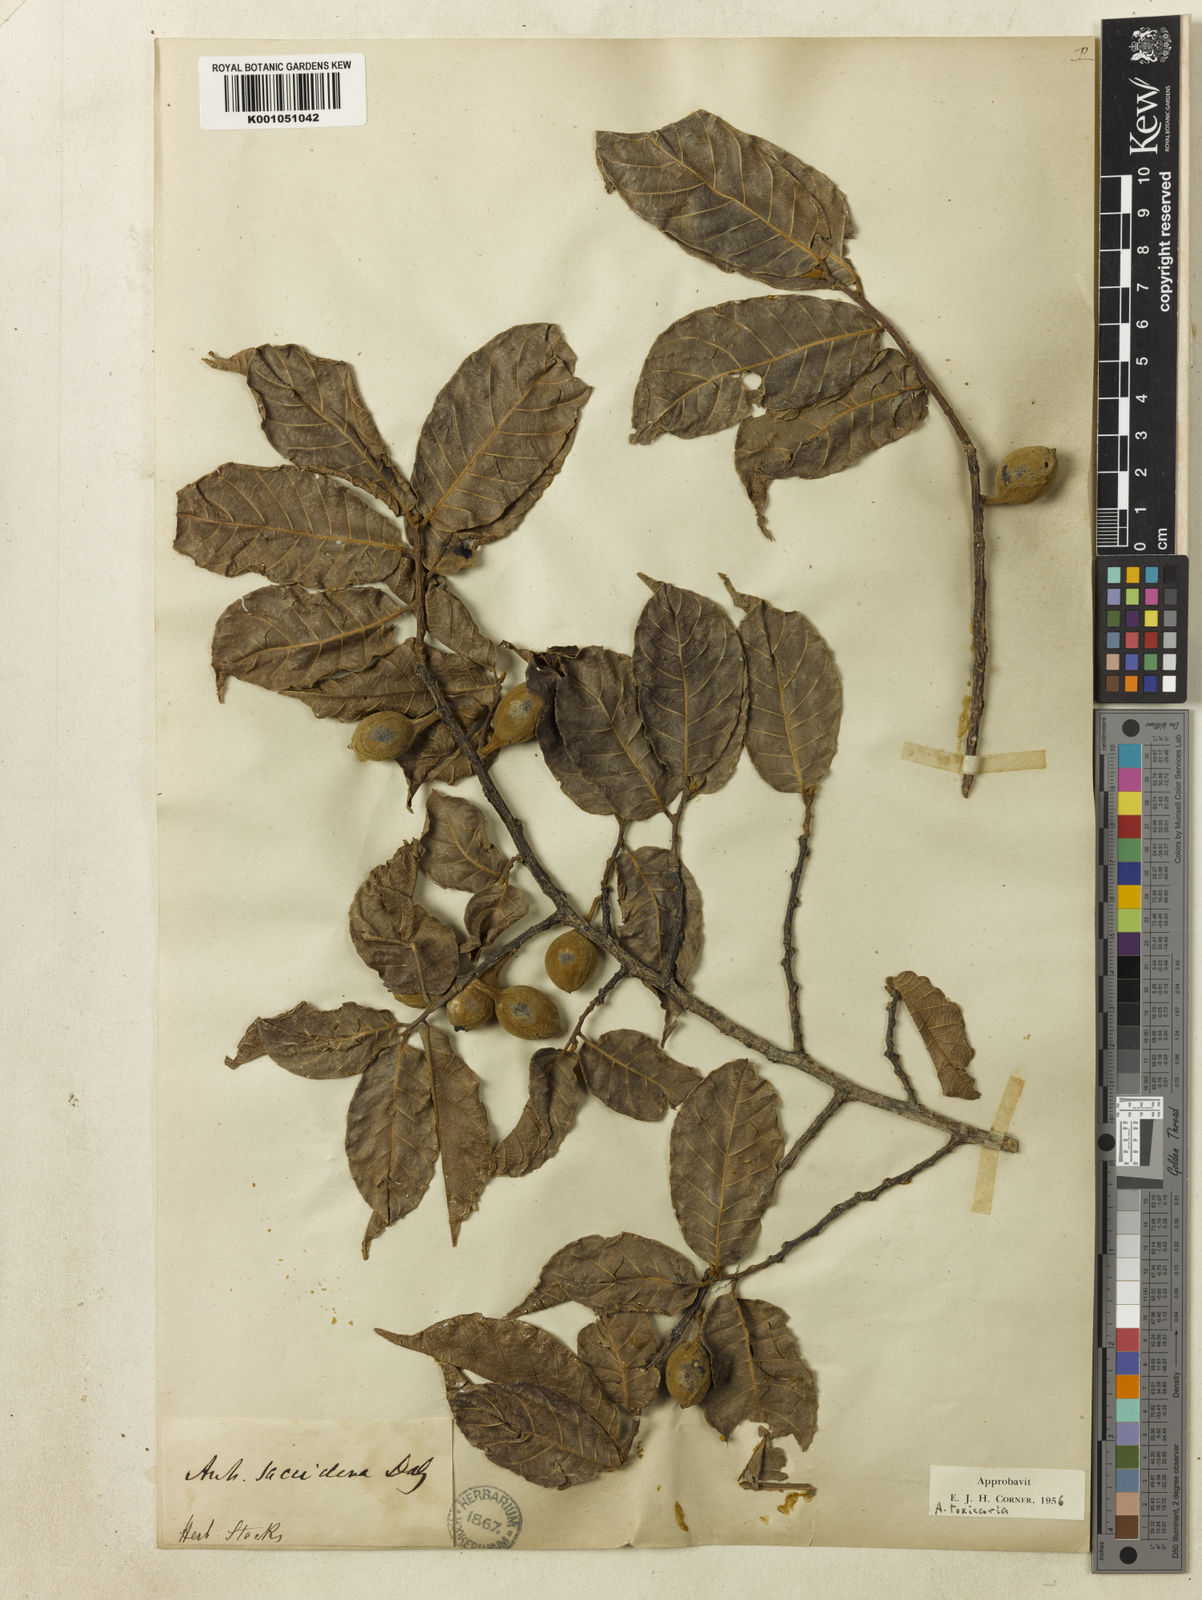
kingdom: Plantae
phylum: Tracheophyta
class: Magnoliopsida
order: Rosales
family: Moraceae
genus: Antiaris
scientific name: Antiaris toxicaria
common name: Sackingtree
